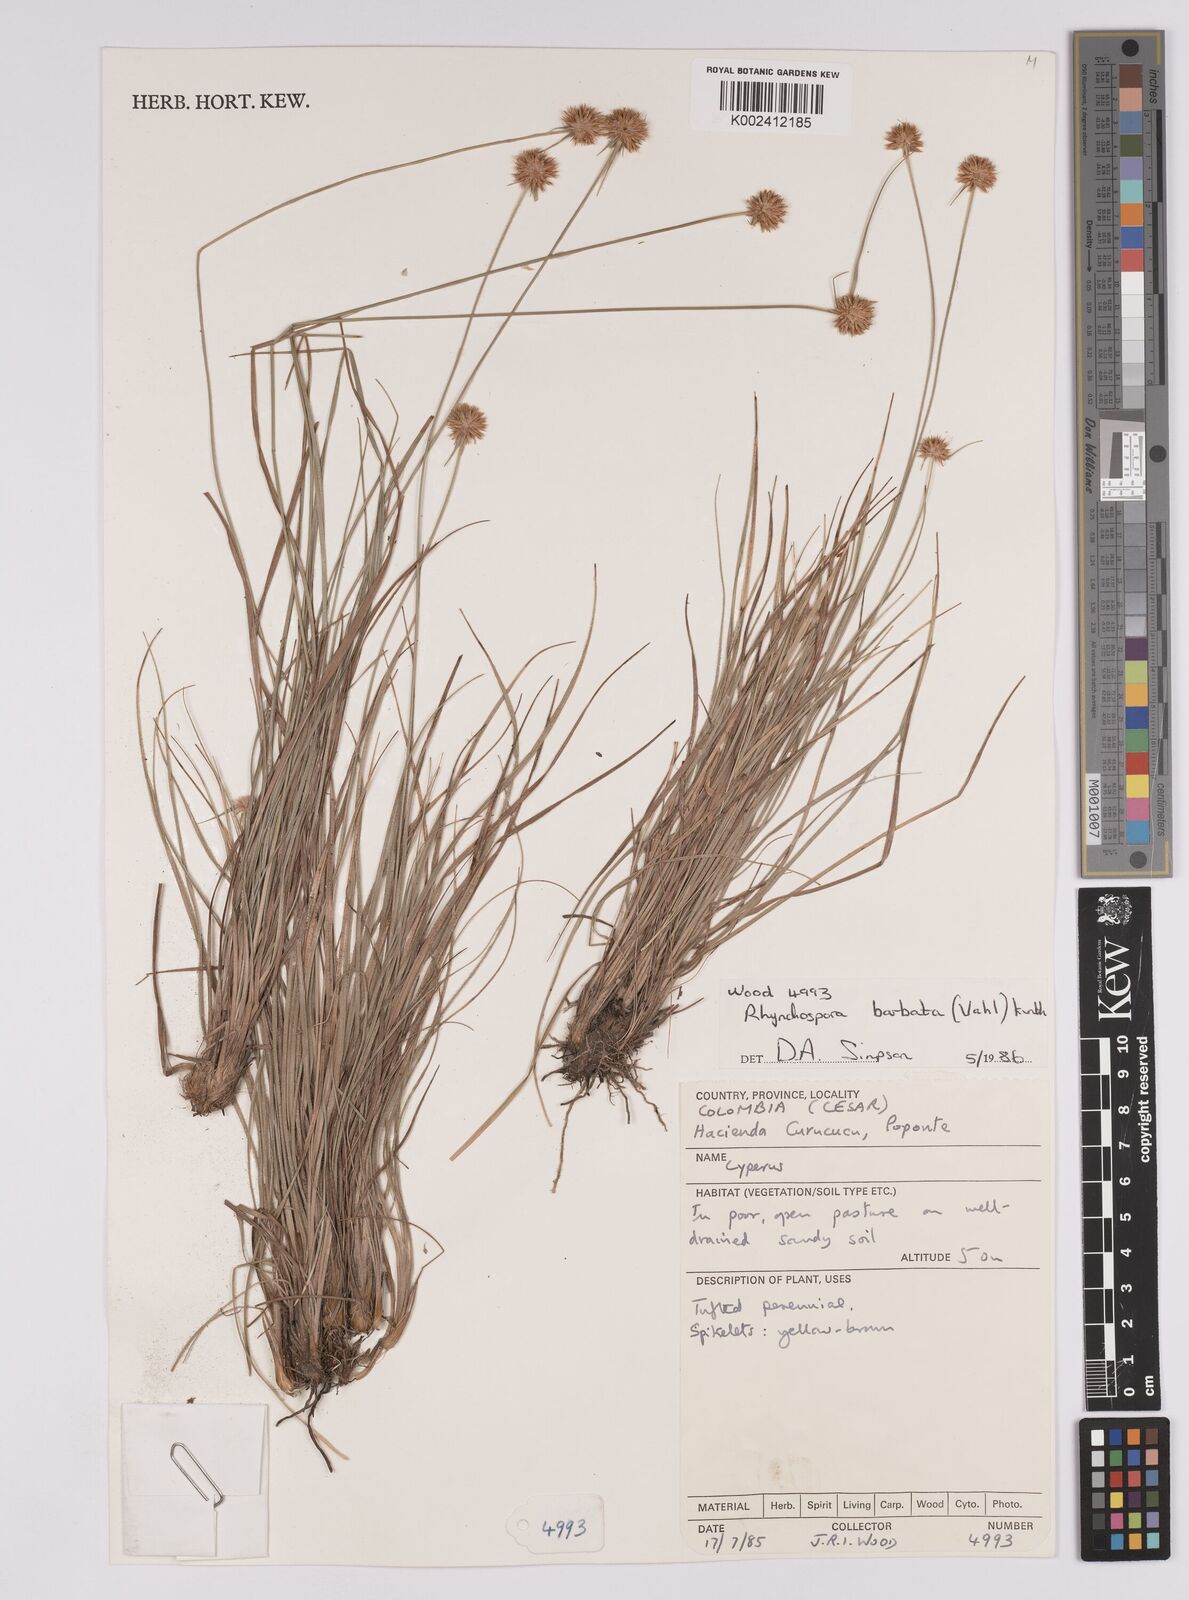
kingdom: Plantae
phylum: Tracheophyta
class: Liliopsida
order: Poales
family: Cyperaceae
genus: Rhynchospora
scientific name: Rhynchospora barbata
